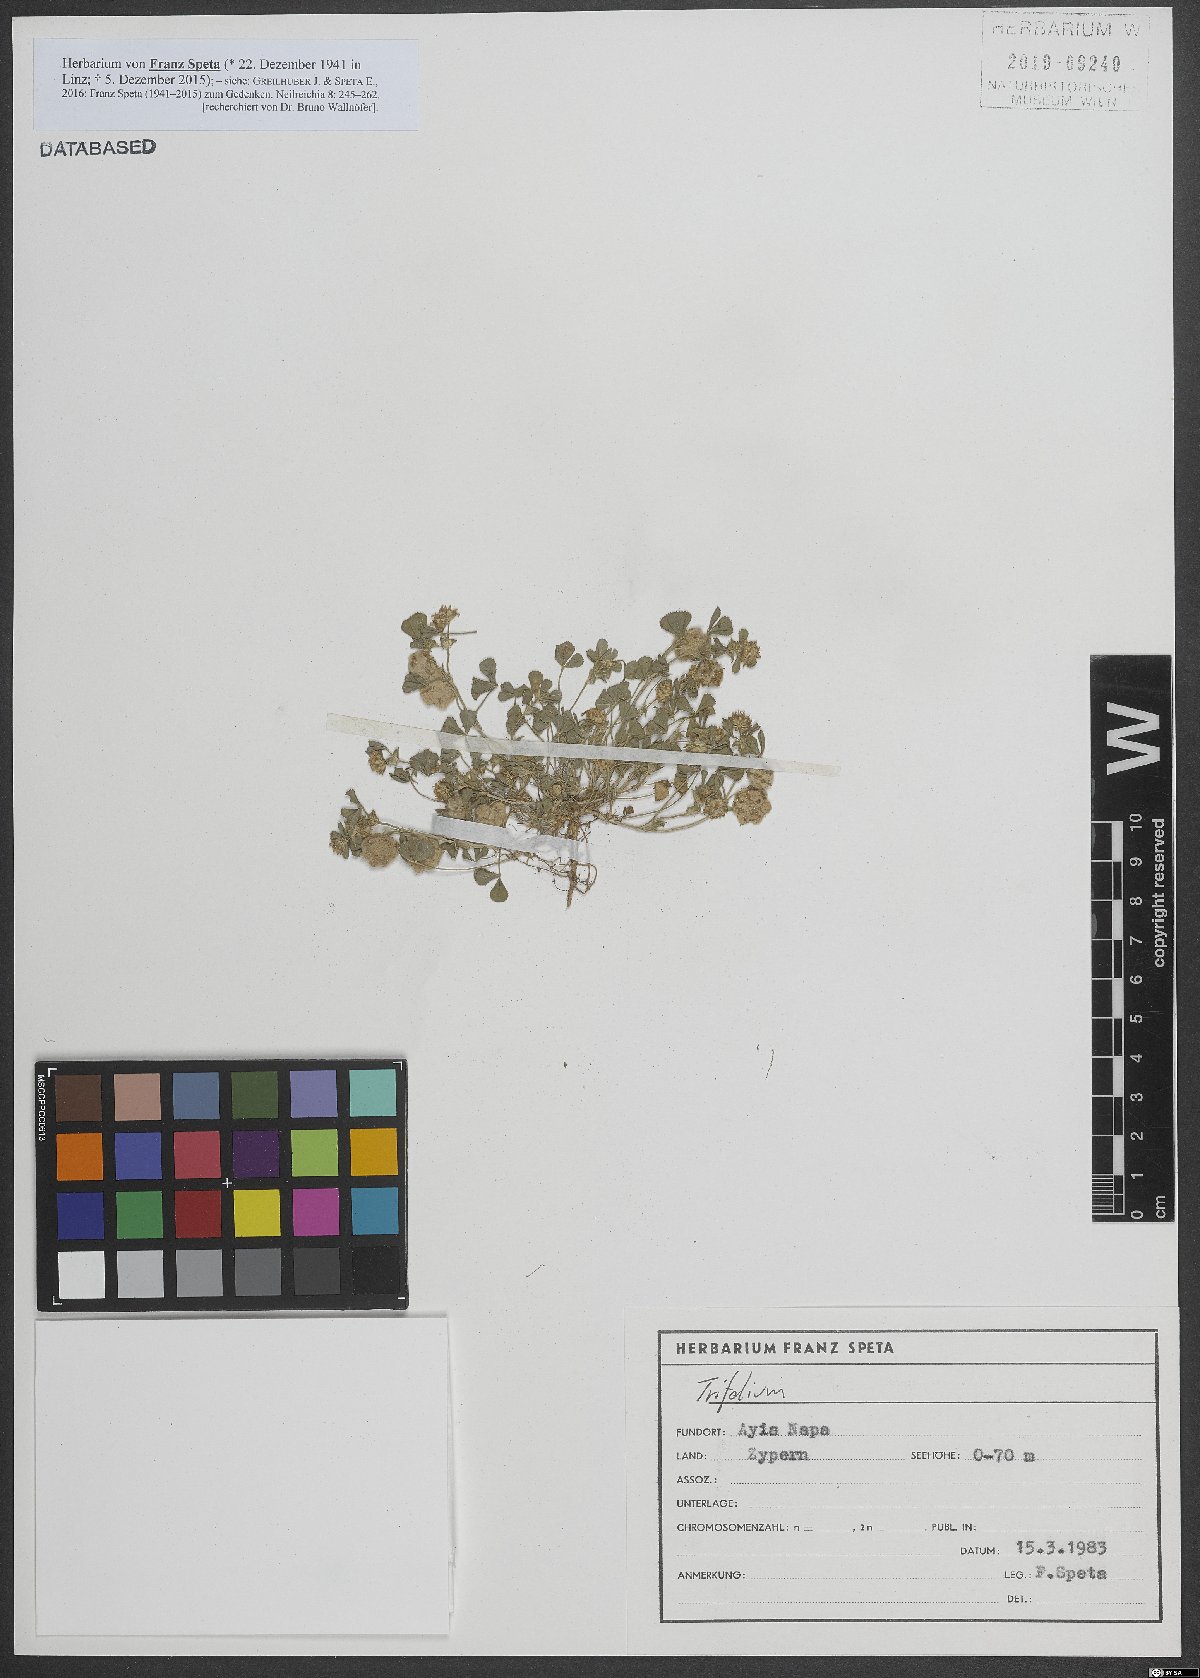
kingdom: Plantae
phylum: Tracheophyta
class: Magnoliopsida
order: Fabales
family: Fabaceae
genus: Trifolium
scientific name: Trifolium tomentosum
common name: Woolly clover
